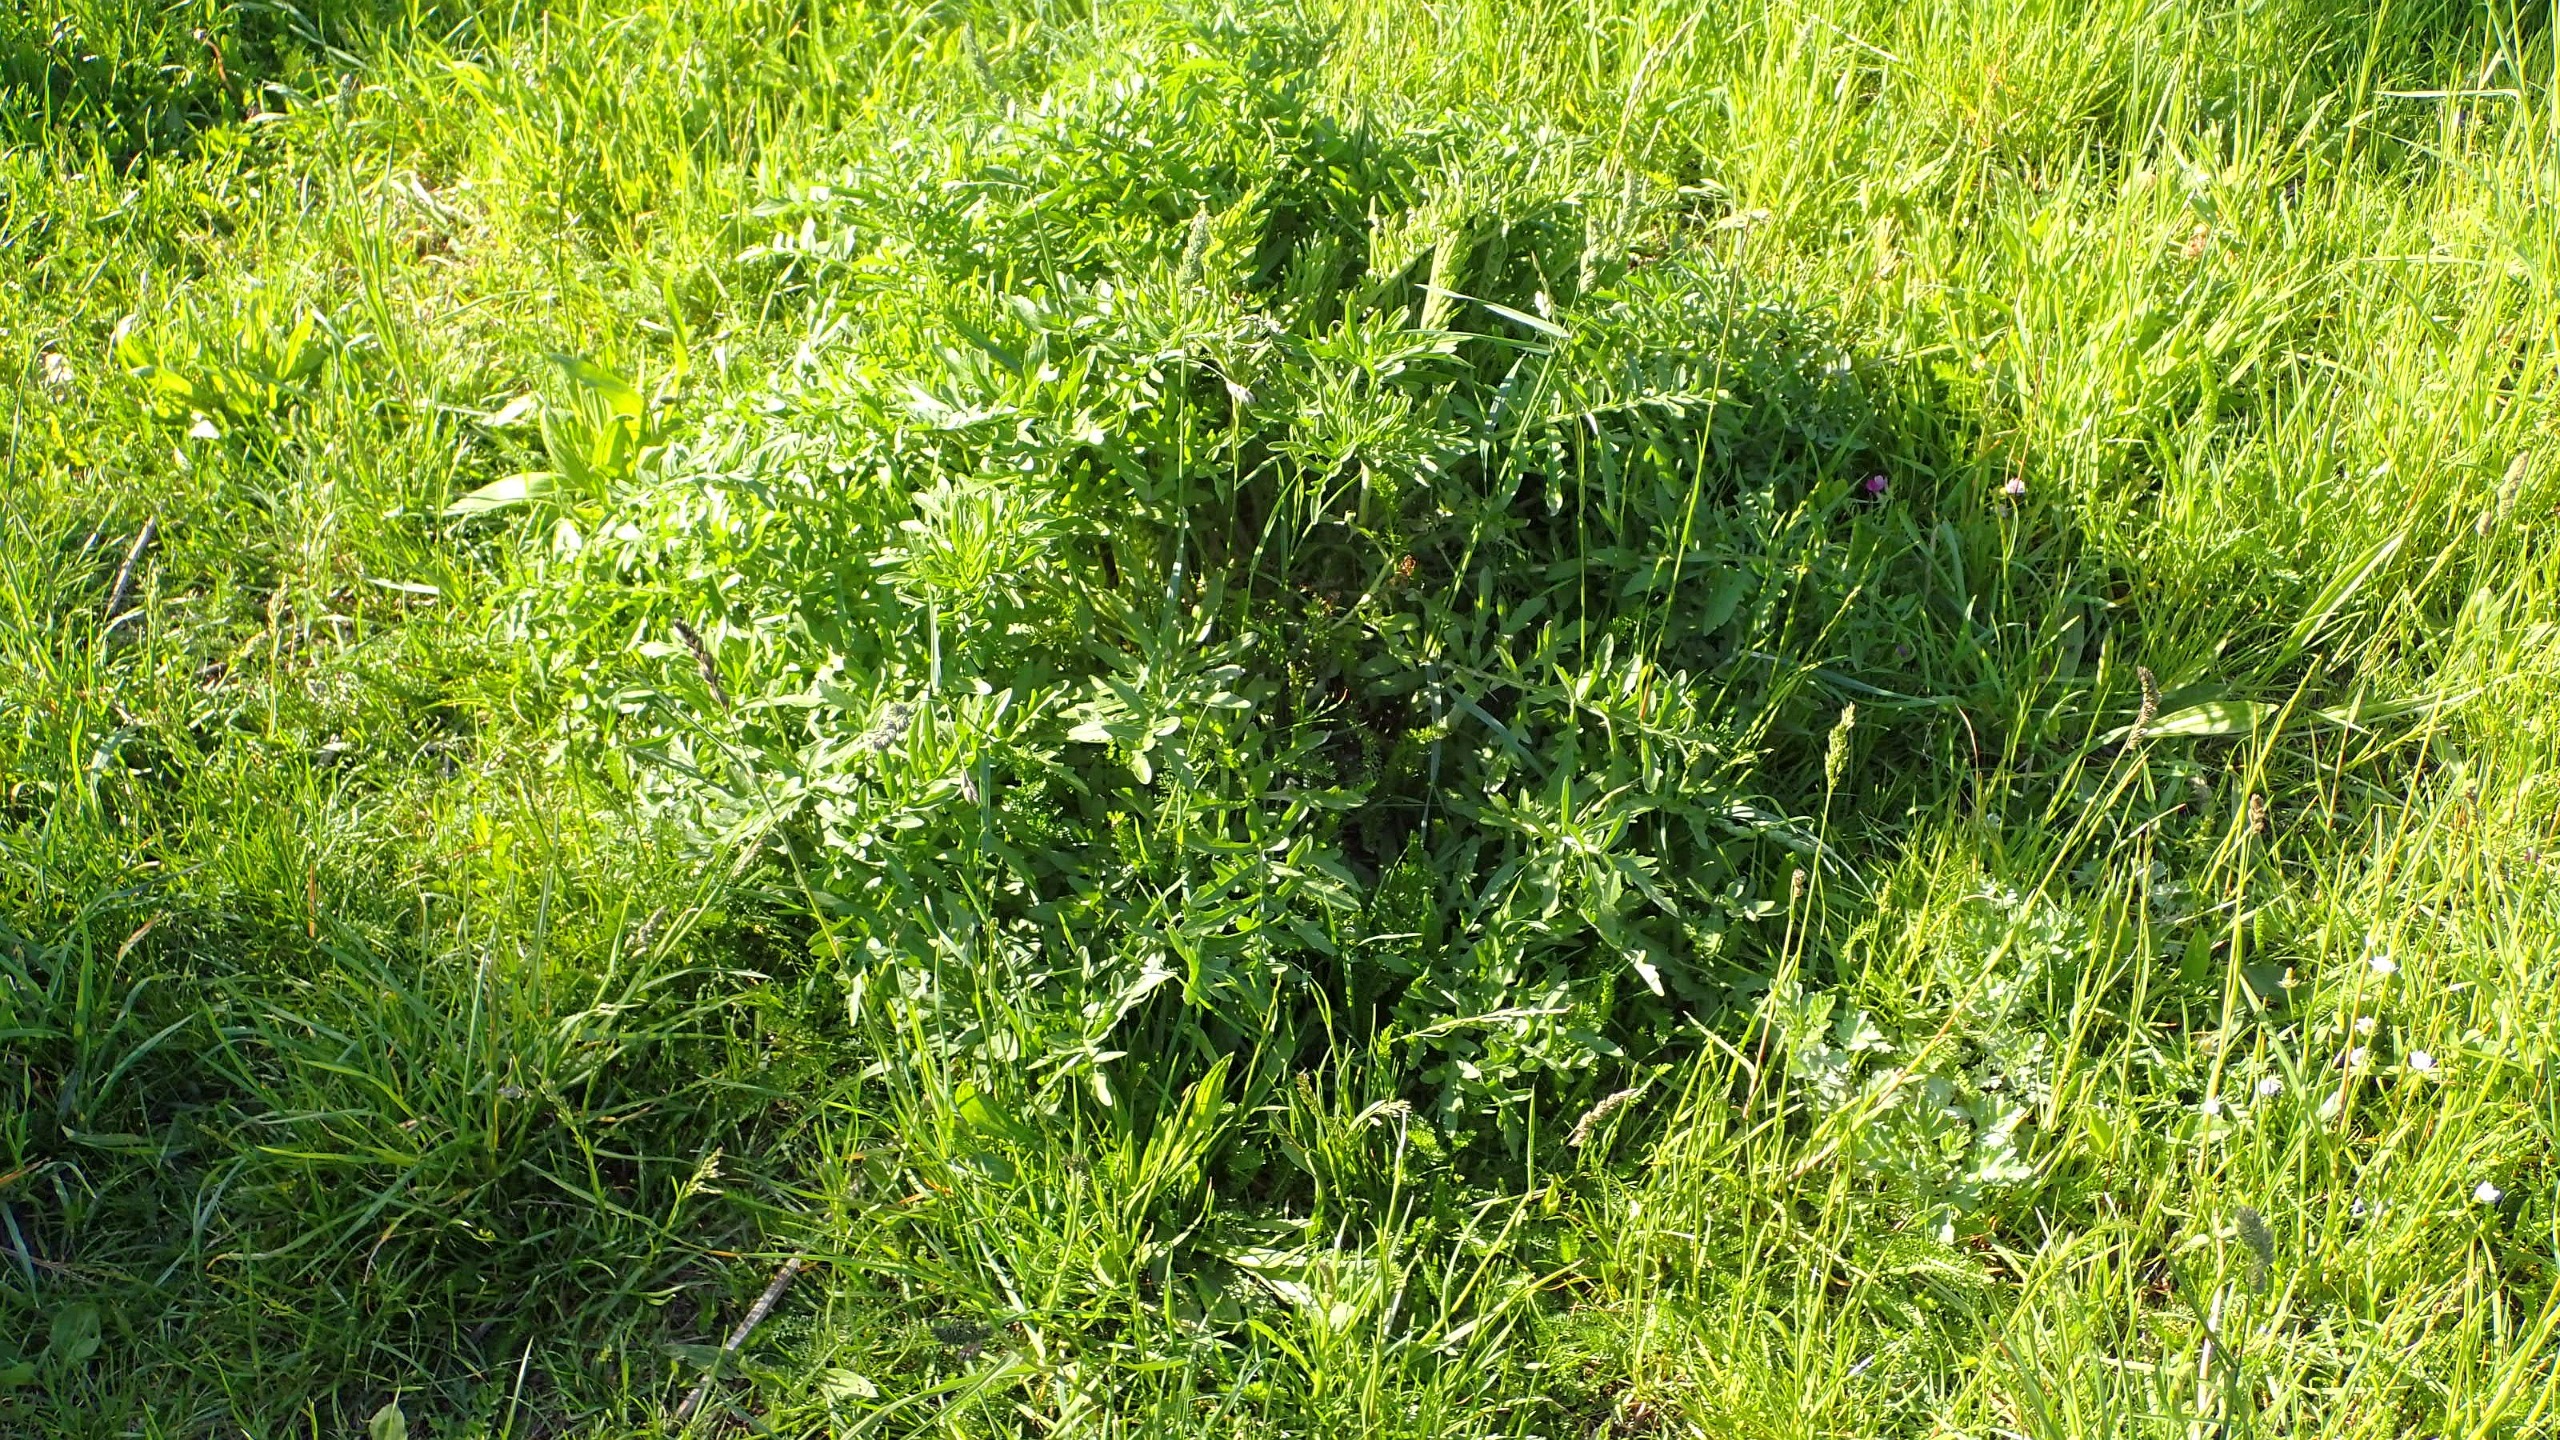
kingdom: Plantae
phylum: Tracheophyta
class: Magnoliopsida
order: Asterales
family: Asteraceae
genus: Centaurea
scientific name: Centaurea scabiosa
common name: Stor knopurt
